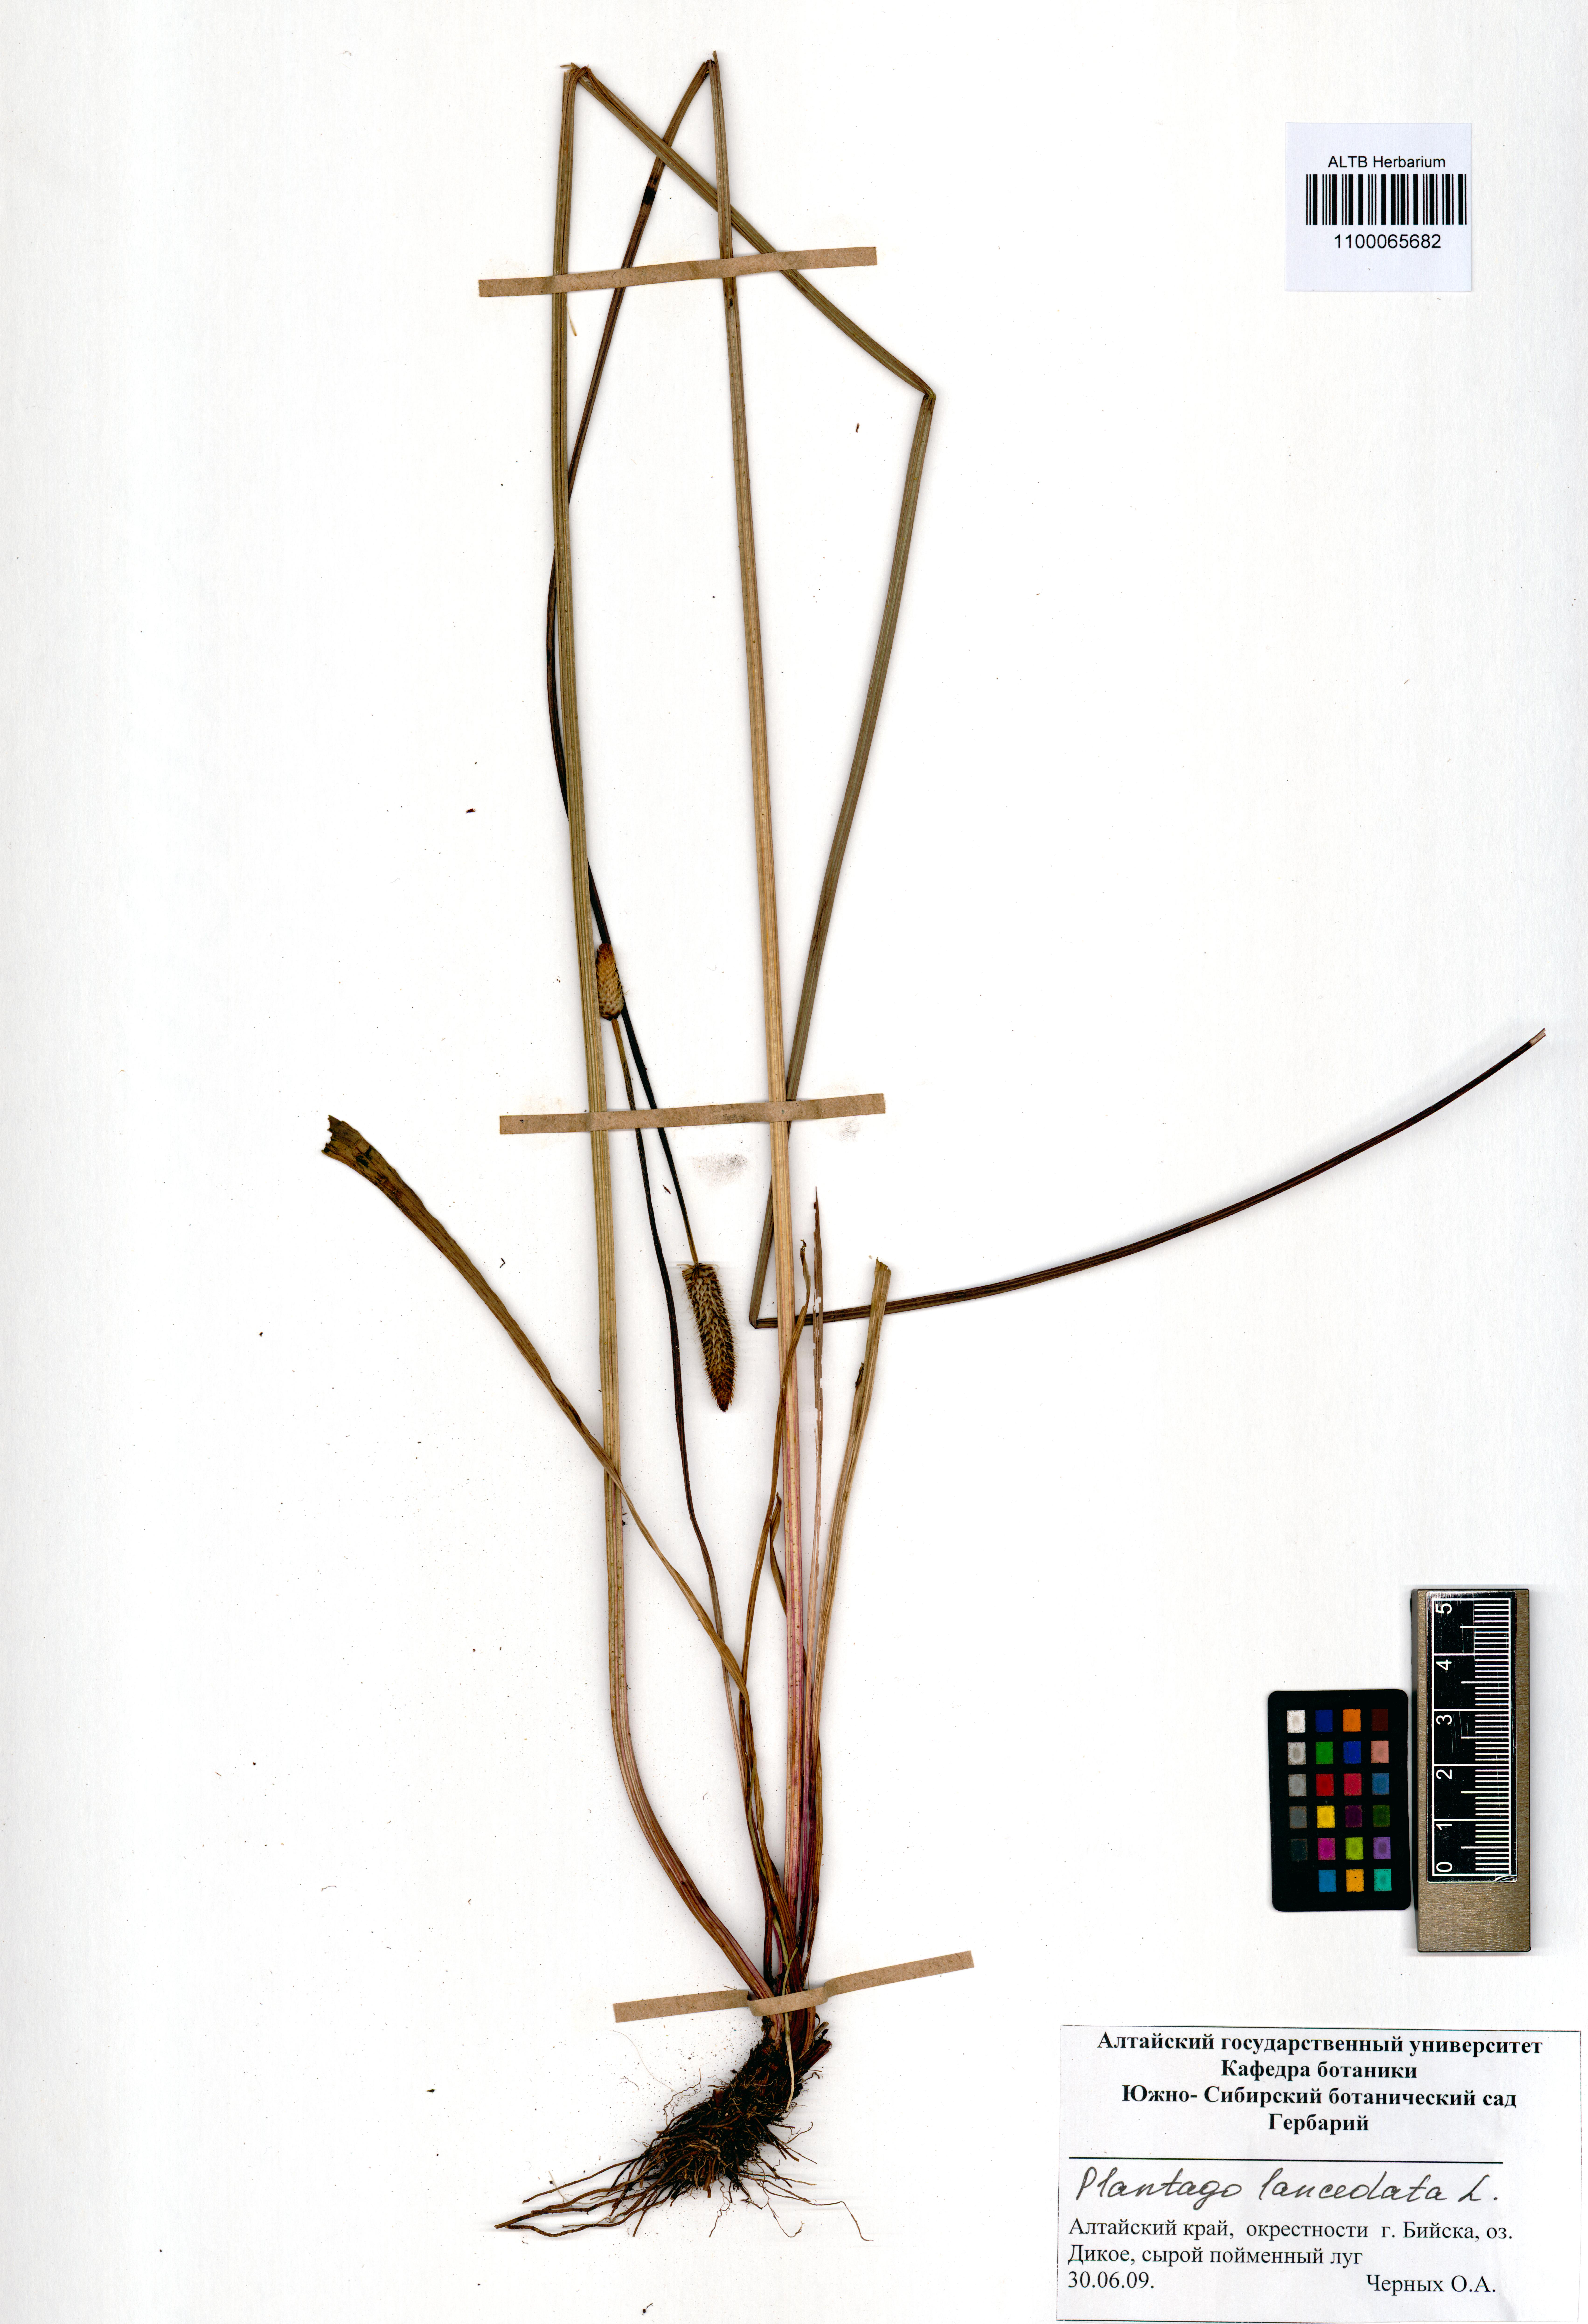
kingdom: Plantae
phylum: Tracheophyta
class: Magnoliopsida
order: Lamiales
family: Plantaginaceae
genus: Plantago
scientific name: Plantago lanceolata
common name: Ribwort plantain
